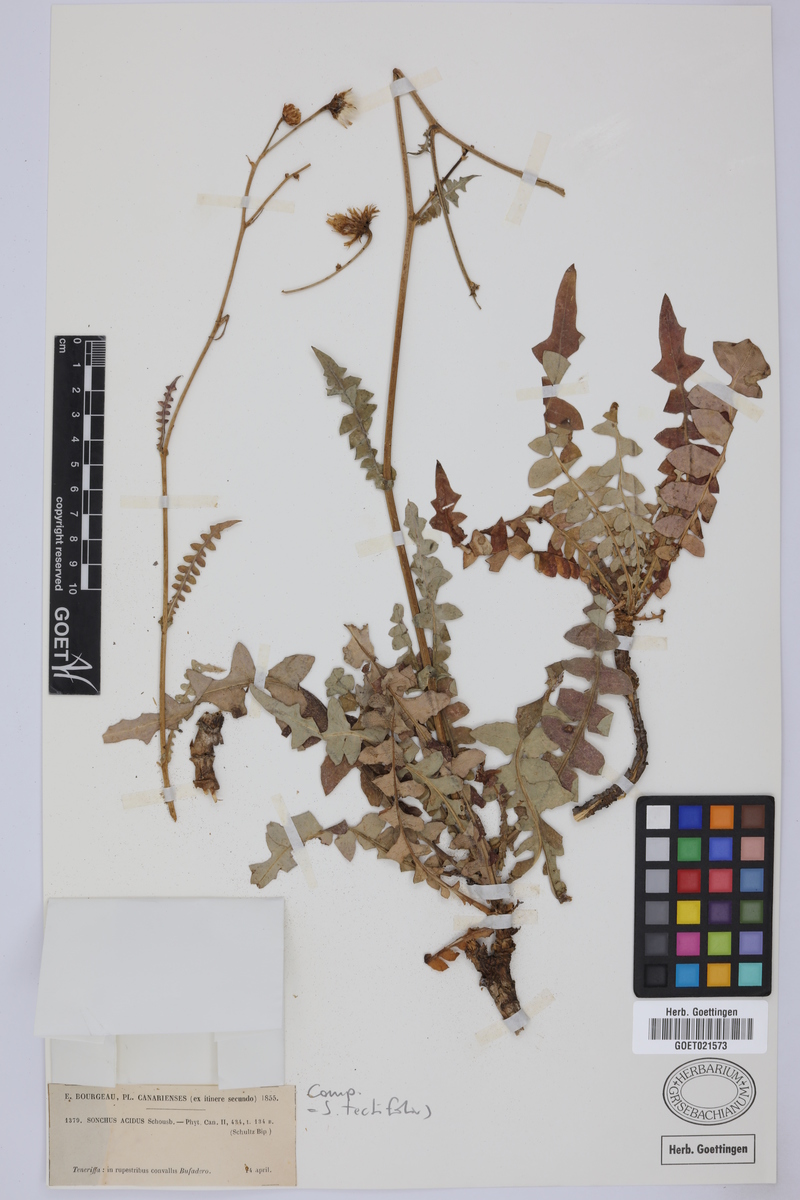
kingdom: Plantae
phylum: Tracheophyta
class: Magnoliopsida
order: Asterales
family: Asteraceae
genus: Sonchus
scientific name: Sonchus tectifolius
